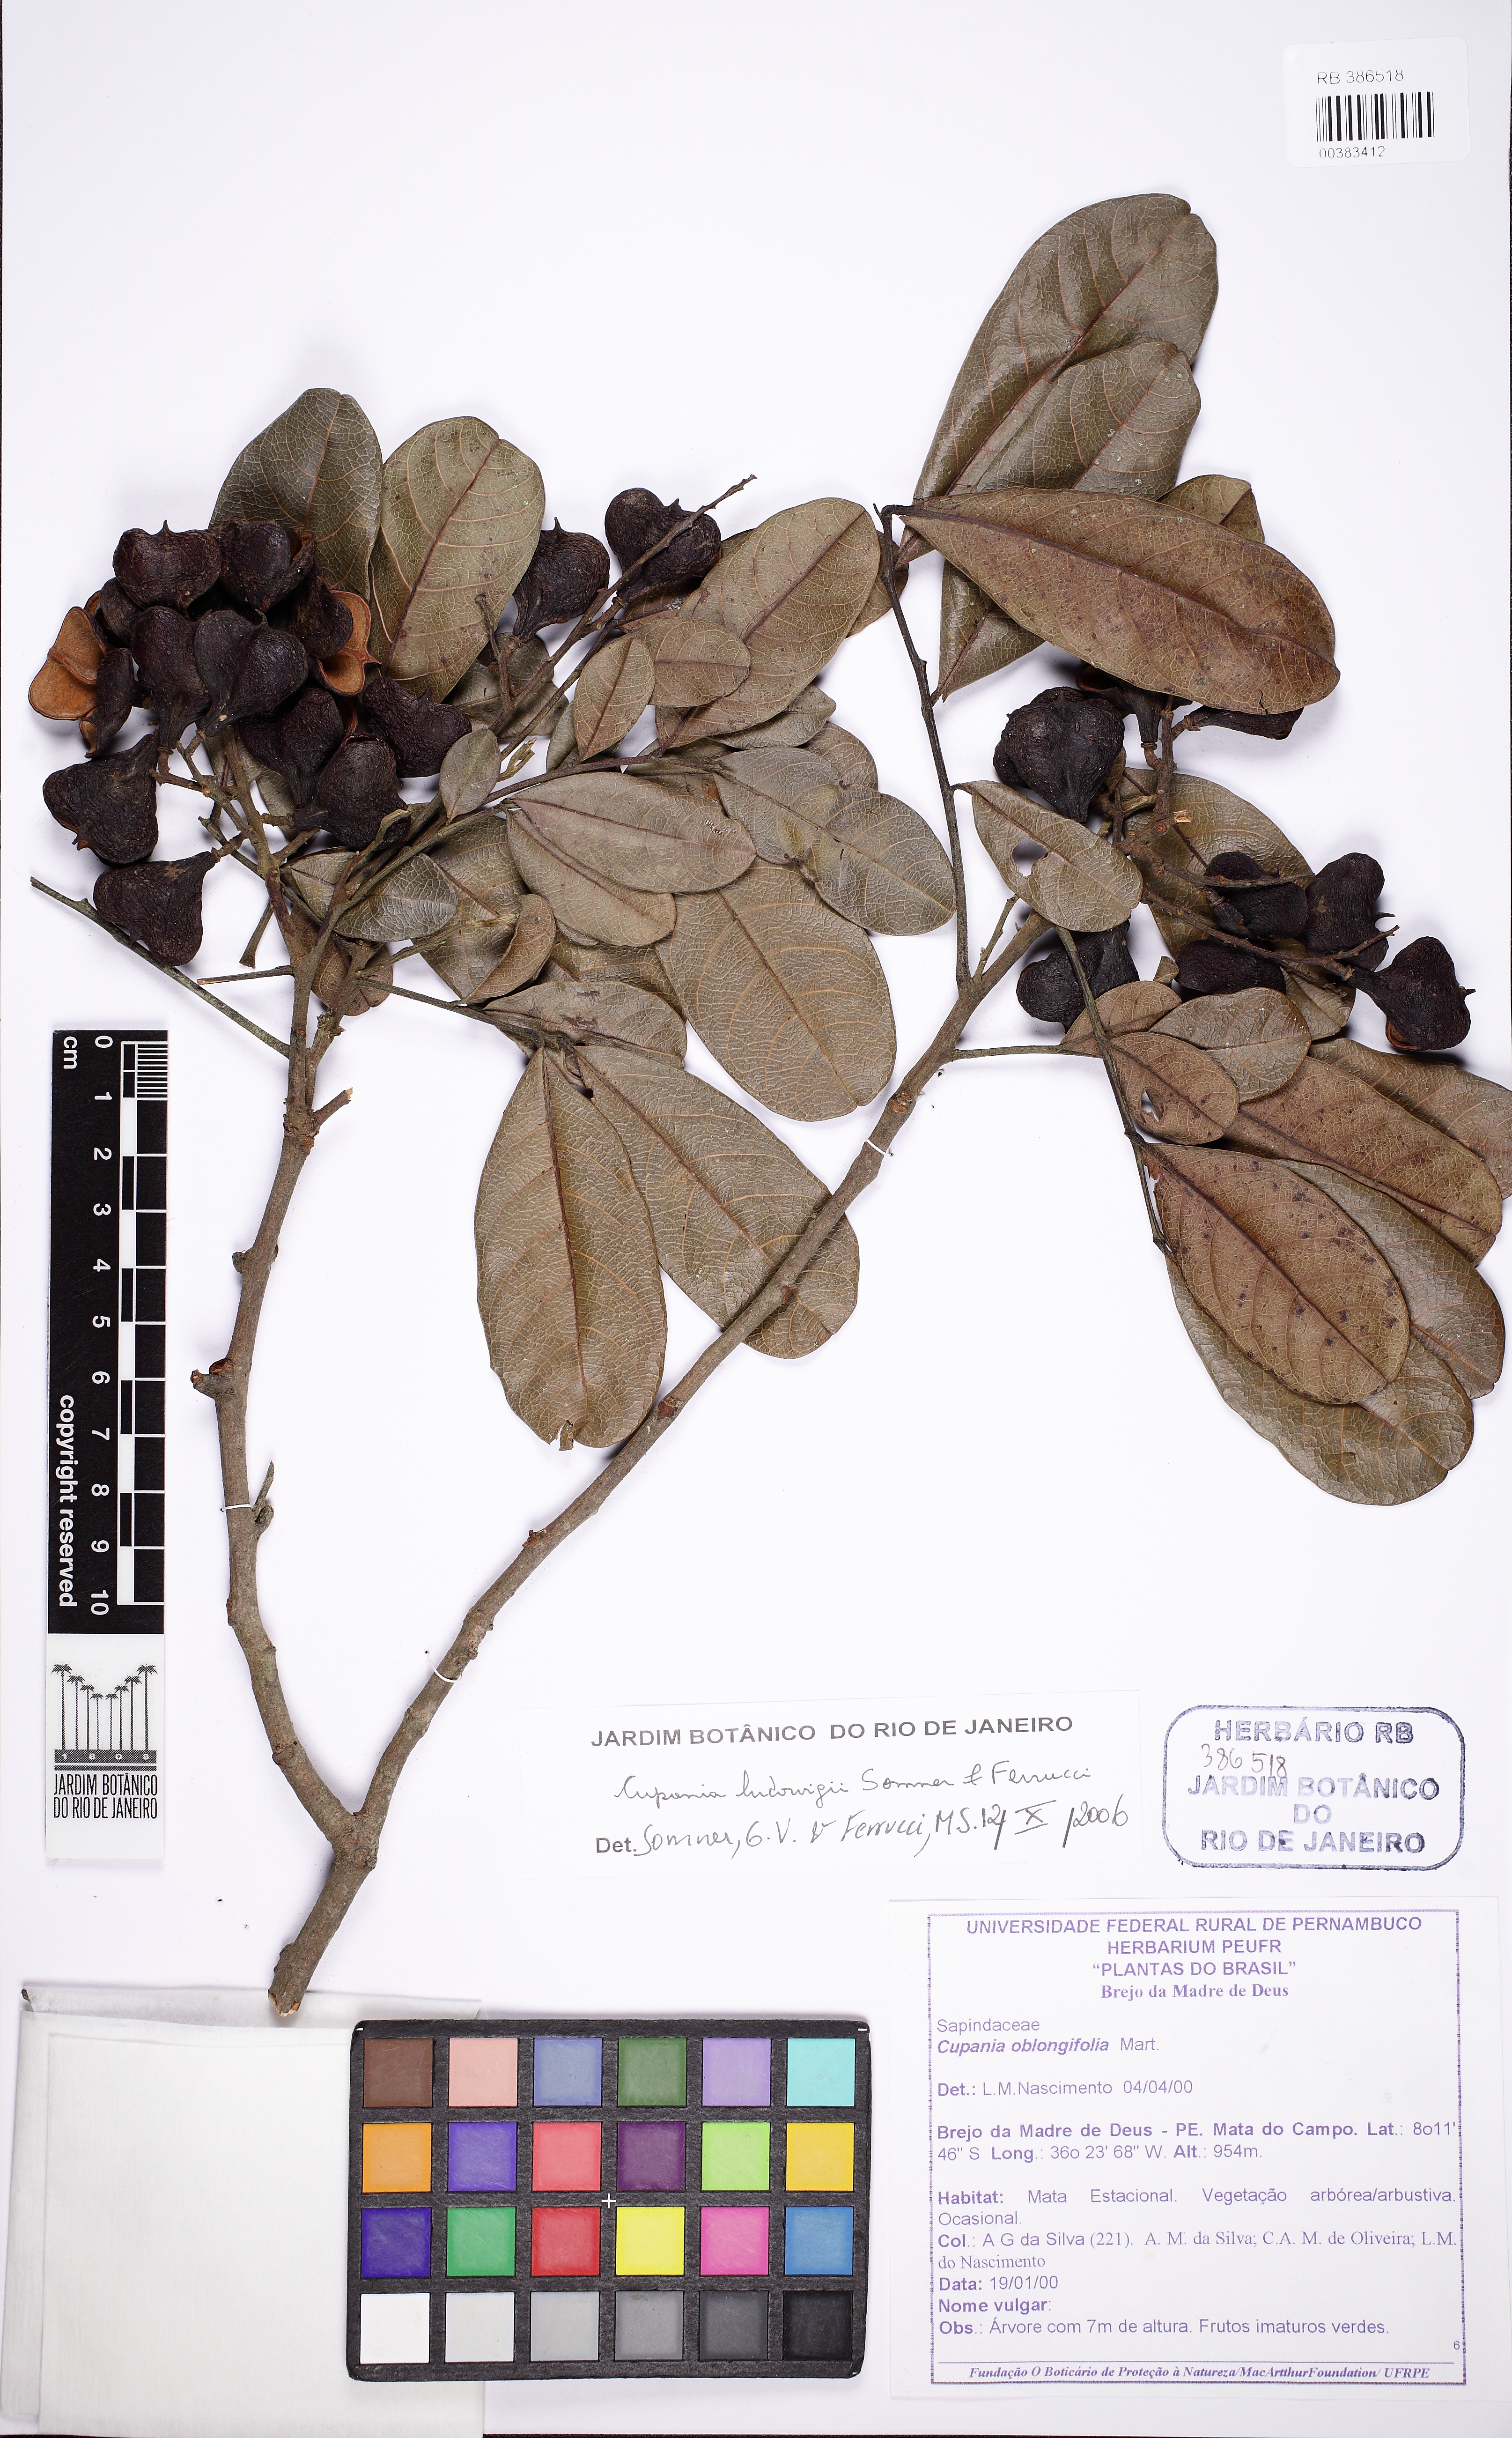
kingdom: Plantae
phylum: Tracheophyta
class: Magnoliopsida
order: Sapindales
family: Sapindaceae
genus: Cupania
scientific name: Cupania ludowigii
